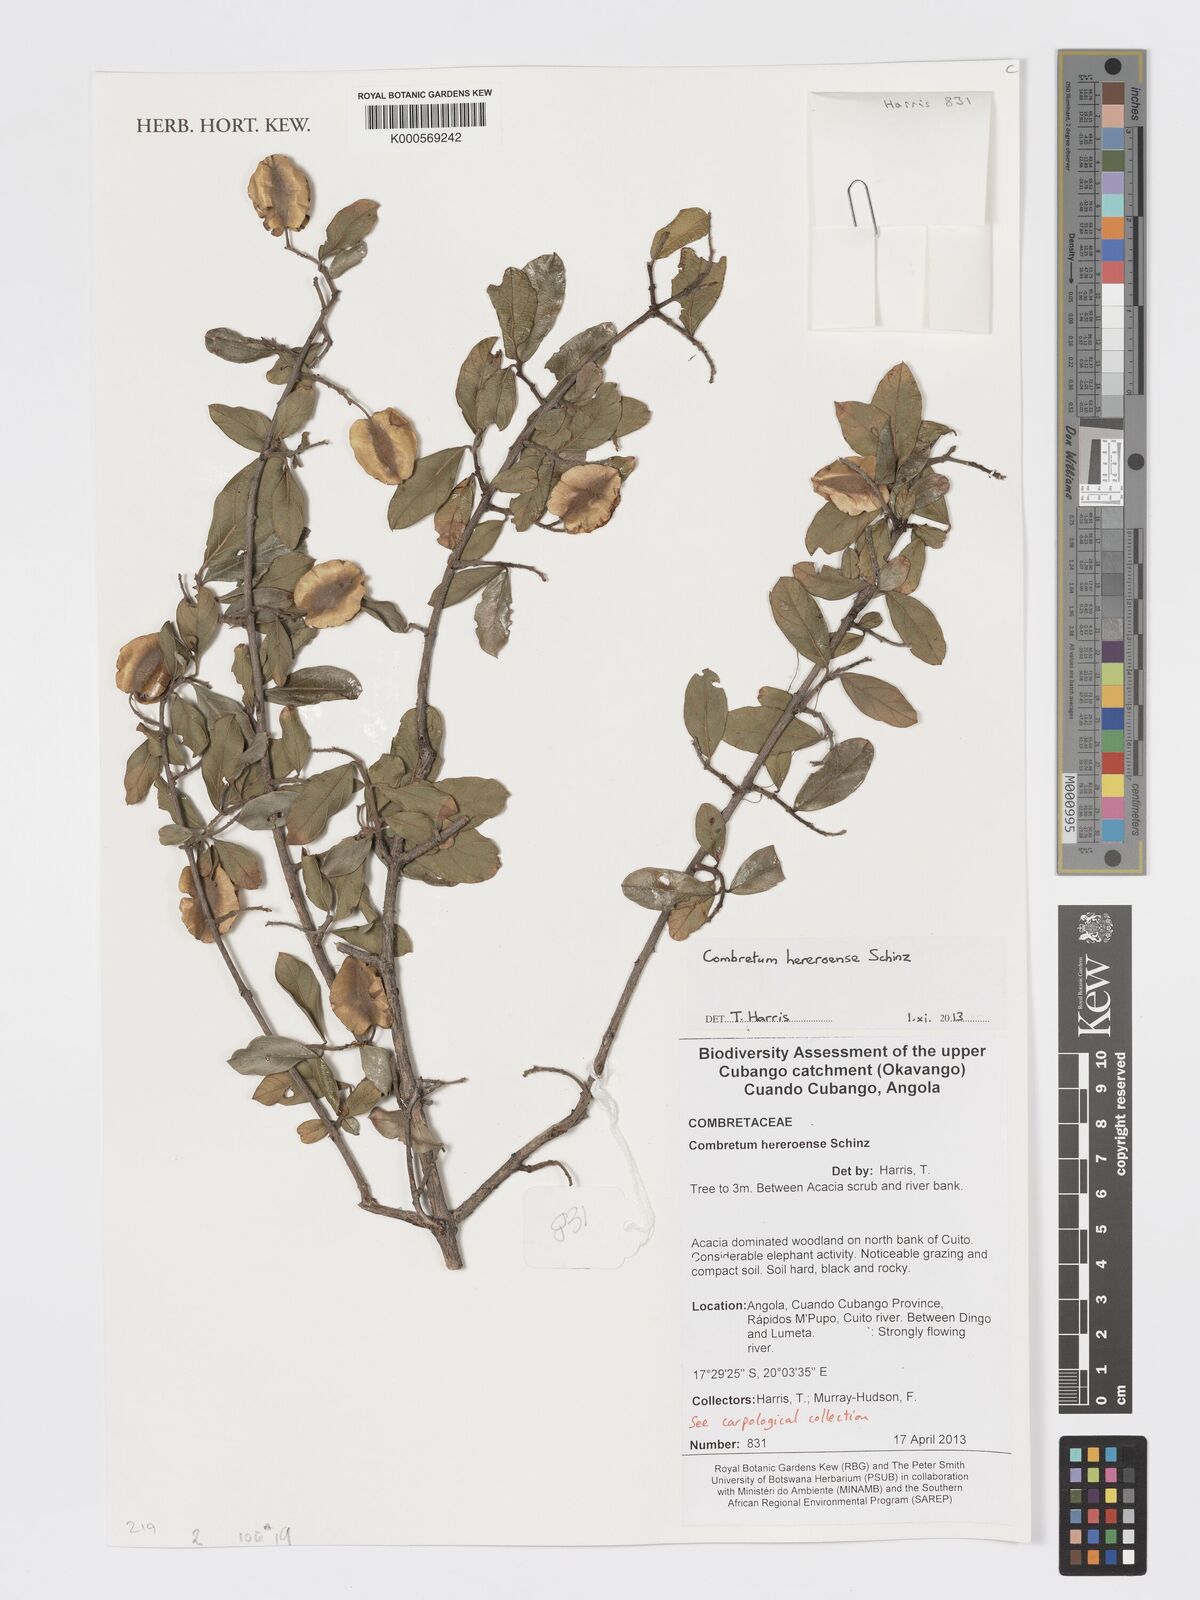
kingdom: Plantae
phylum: Tracheophyta
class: Magnoliopsida
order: Myrtales
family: Combretaceae
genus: Combretum
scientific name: Combretum hereroense
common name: Russet bushwillow
